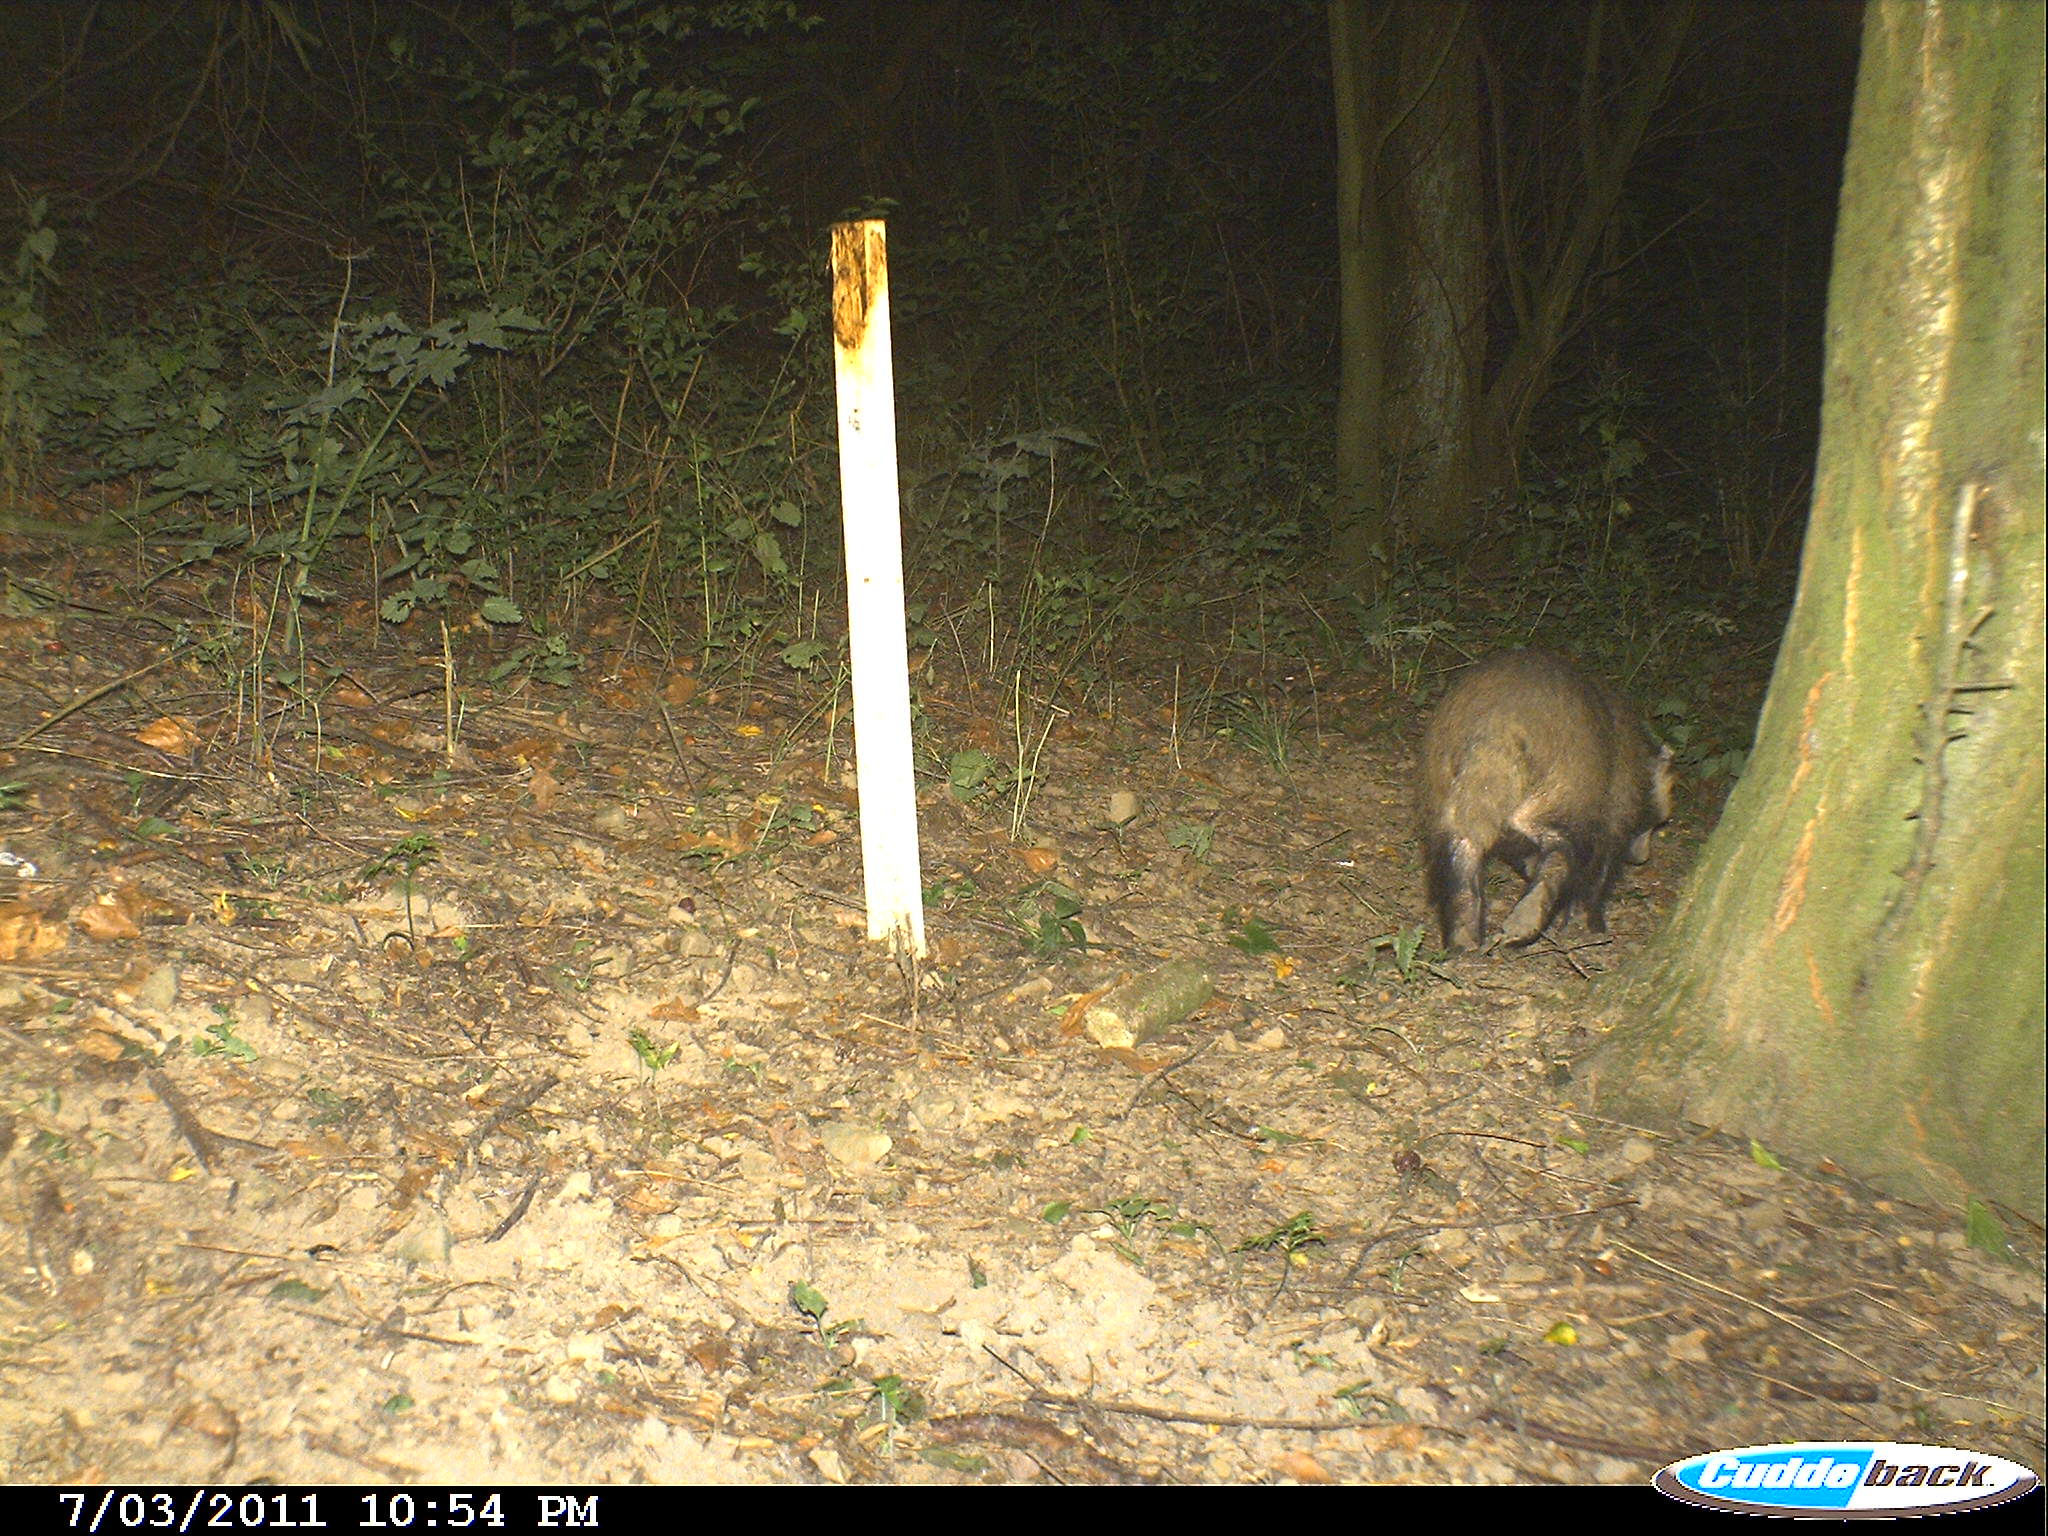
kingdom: Animalia
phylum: Chordata
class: Mammalia
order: Carnivora
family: Mustelidae
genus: Meles
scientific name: Meles meles
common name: Eurasian badger
